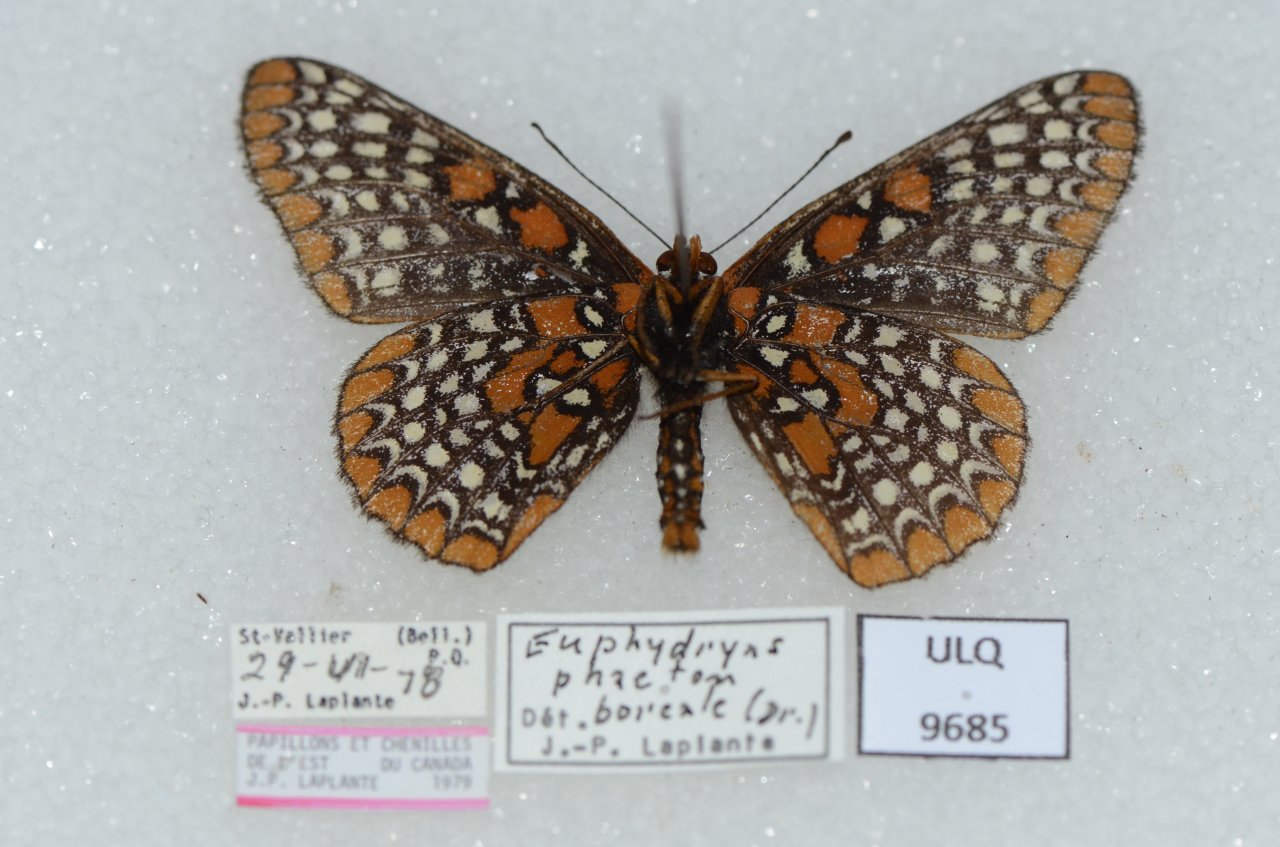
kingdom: Animalia
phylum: Arthropoda
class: Insecta
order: Lepidoptera
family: Nymphalidae
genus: Euphydryas
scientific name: Euphydryas phaeton
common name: Baltimore Checkerspot
